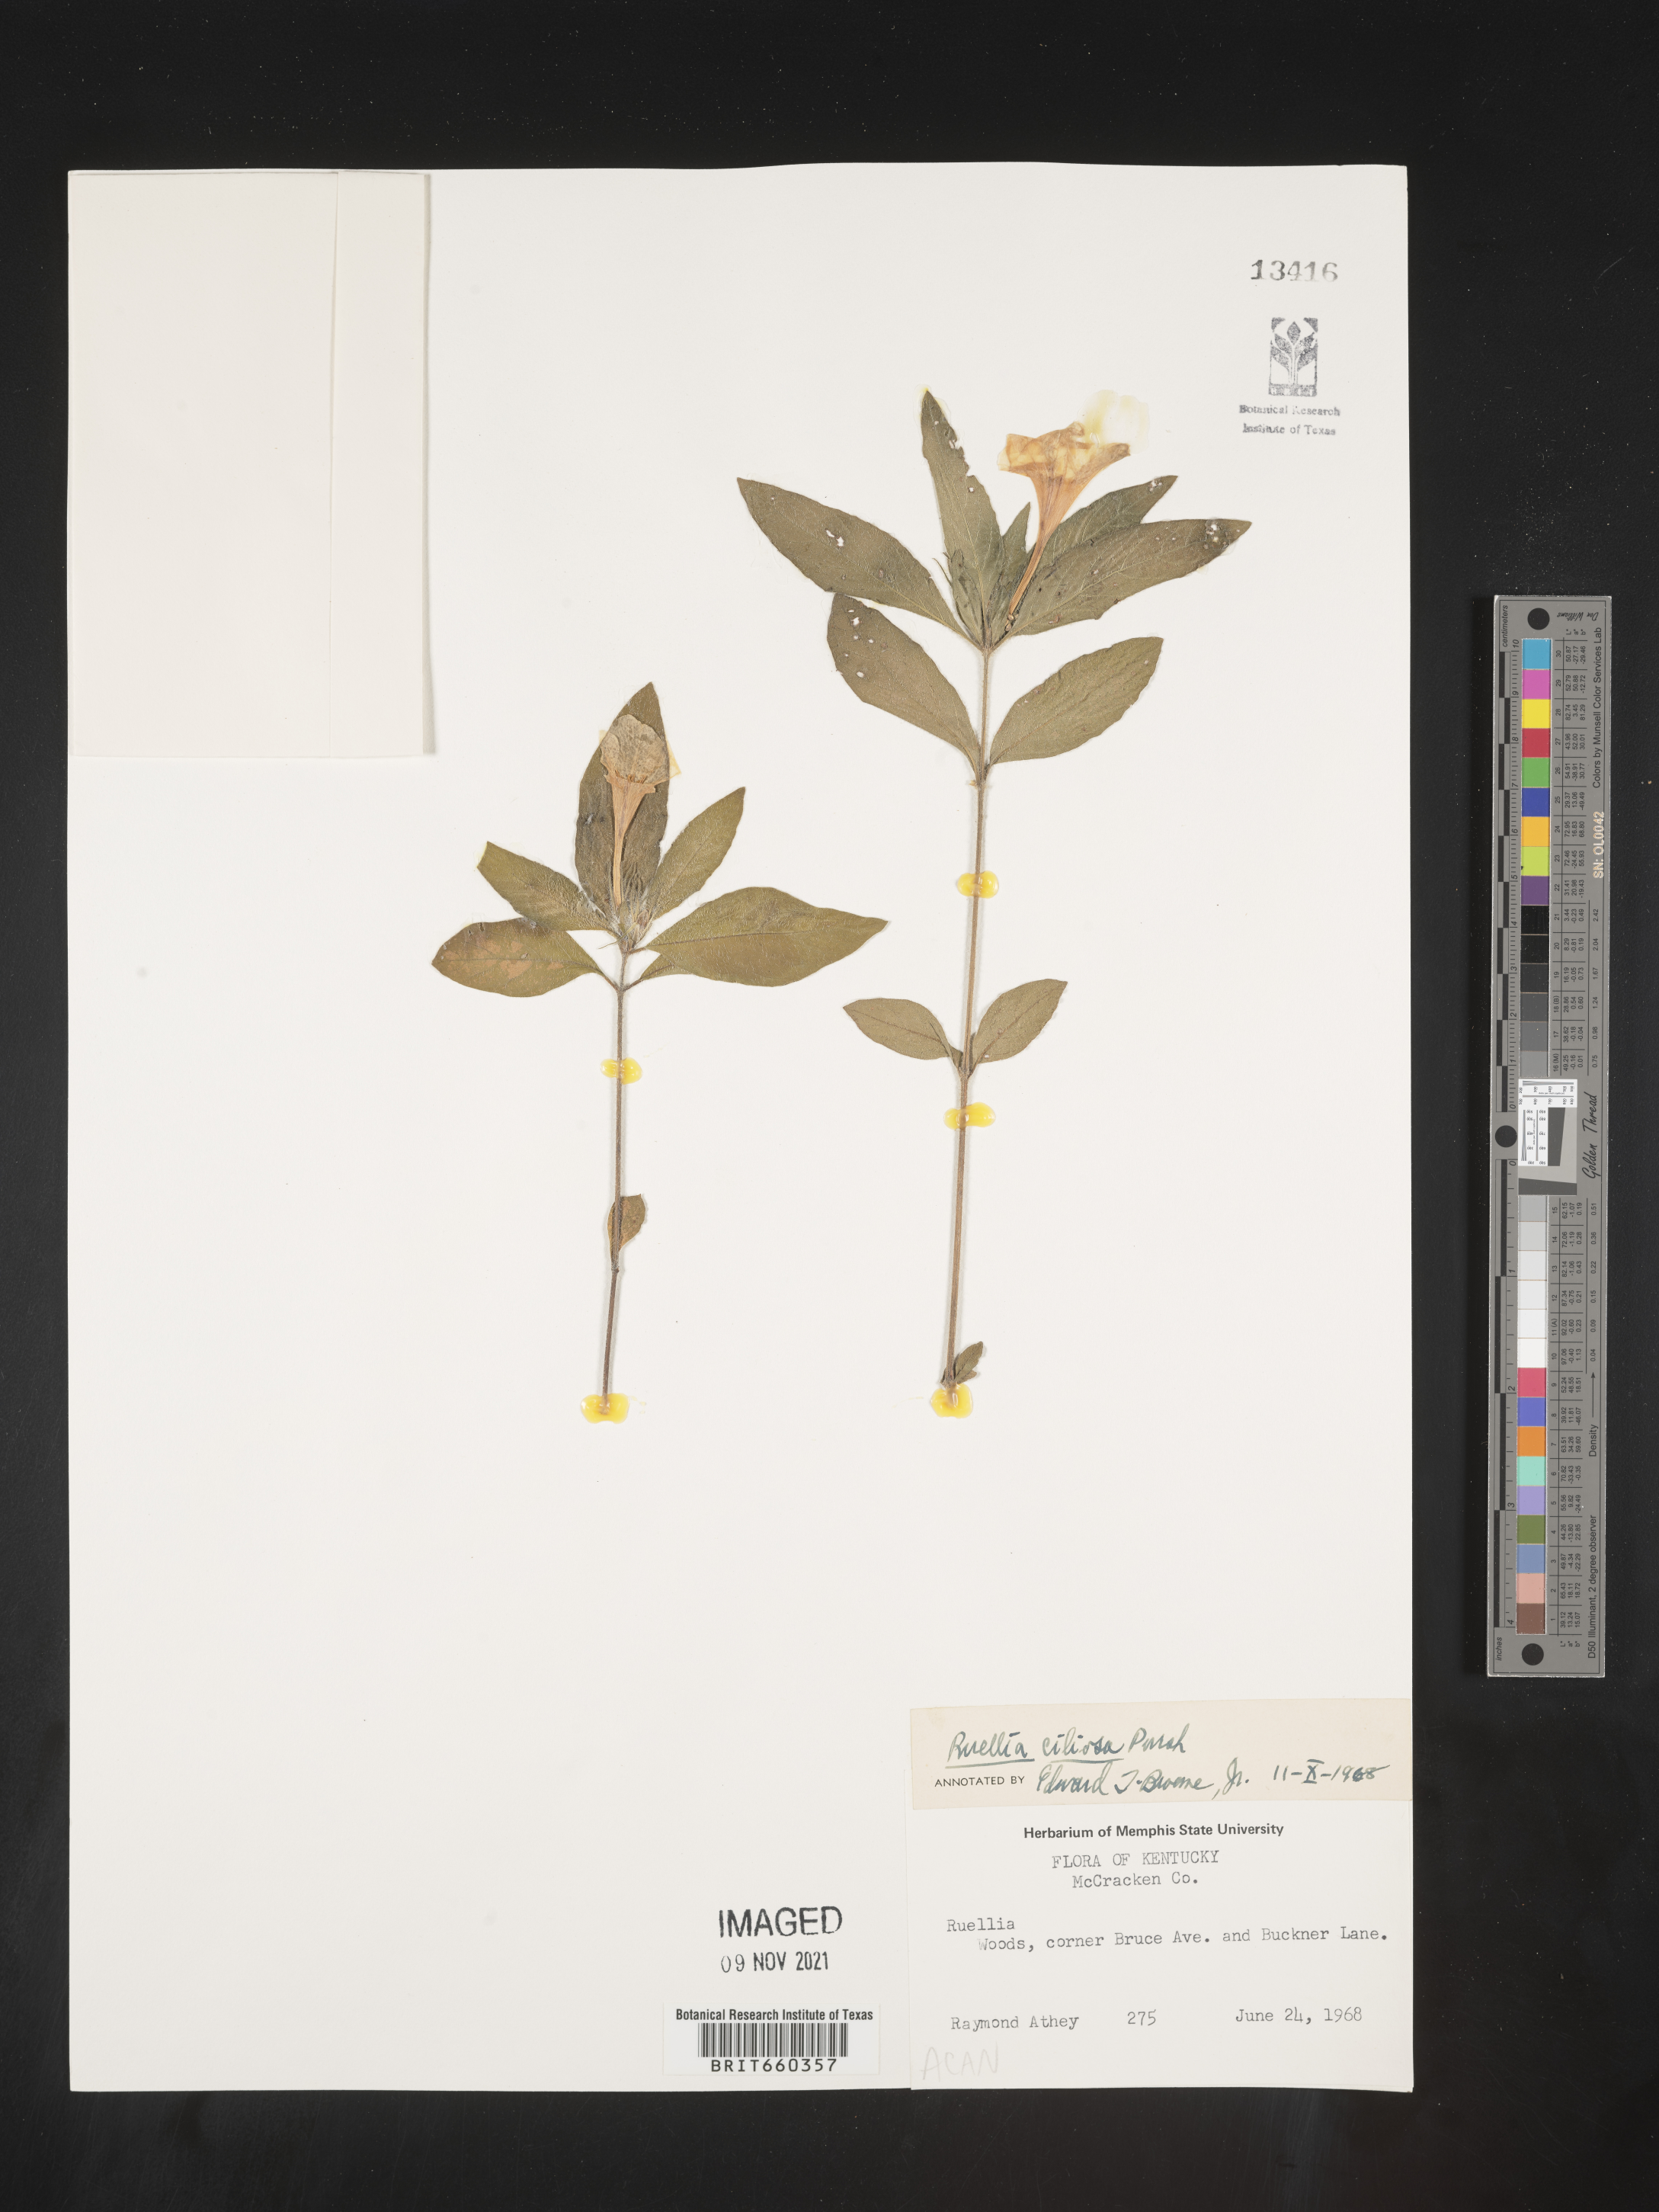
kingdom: Plantae
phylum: Tracheophyta
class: Magnoliopsida
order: Lamiales
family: Acanthaceae
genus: Ruellia
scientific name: Ruellia caroliniensis
